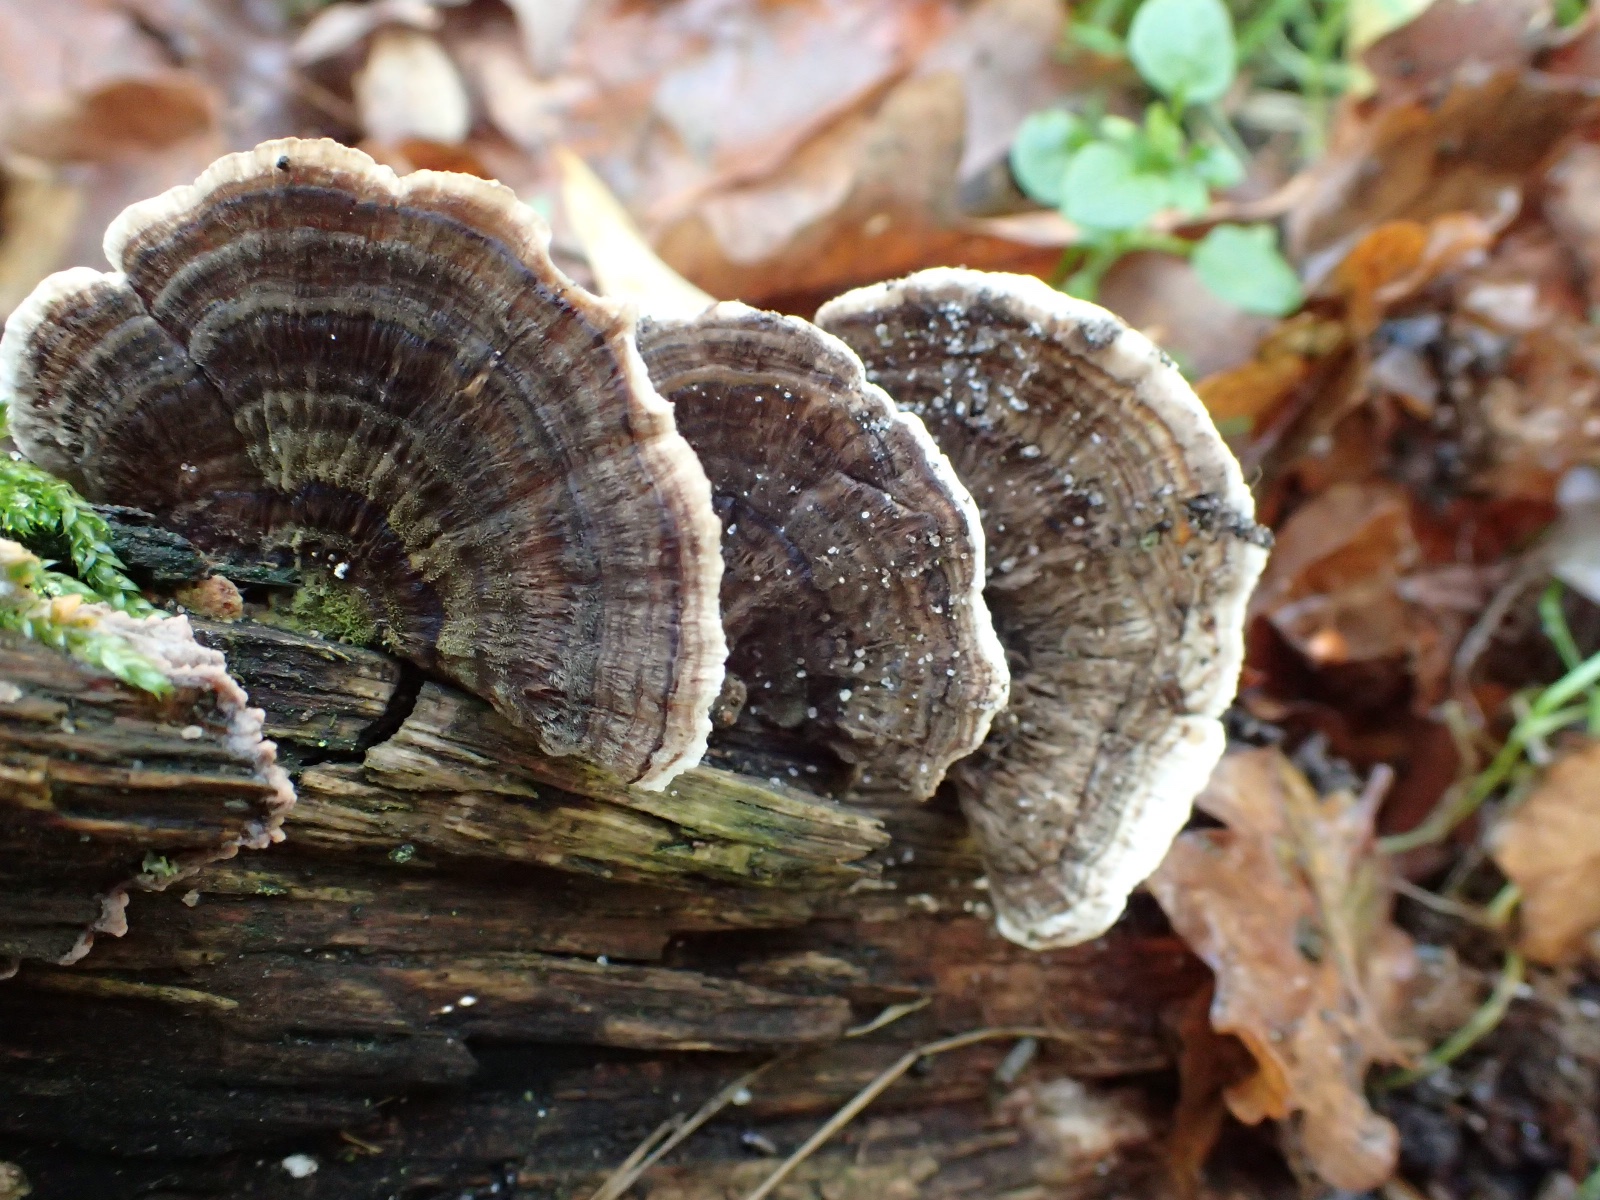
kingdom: Fungi
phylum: Basidiomycota
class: Agaricomycetes
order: Polyporales
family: Polyporaceae
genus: Trametes
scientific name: Trametes versicolor
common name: broget læderporesvamp
